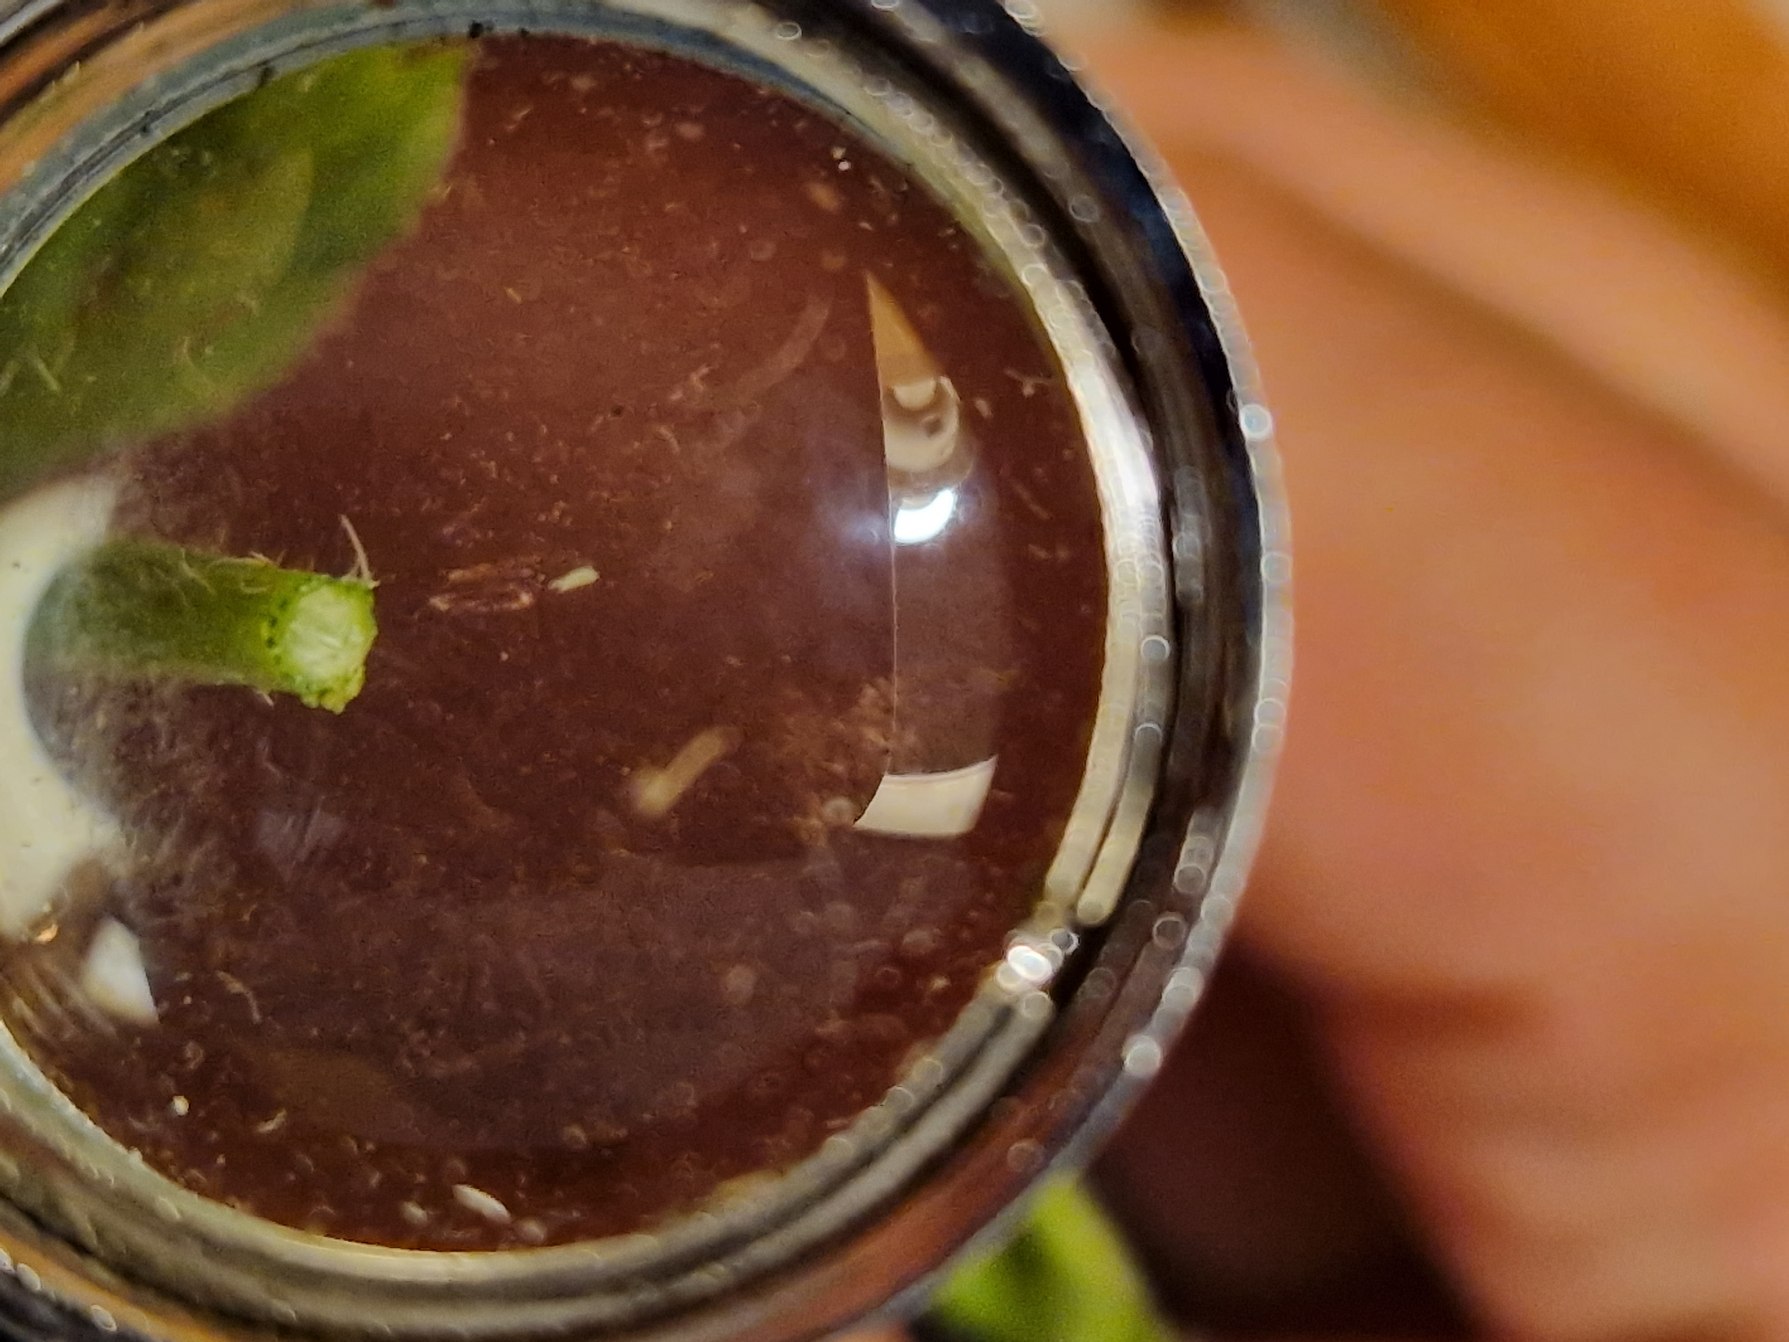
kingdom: Plantae
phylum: Tracheophyta
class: Magnoliopsida
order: Apiales
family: Apiaceae
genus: Daucus
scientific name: Daucus carota
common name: Vild gulerod
